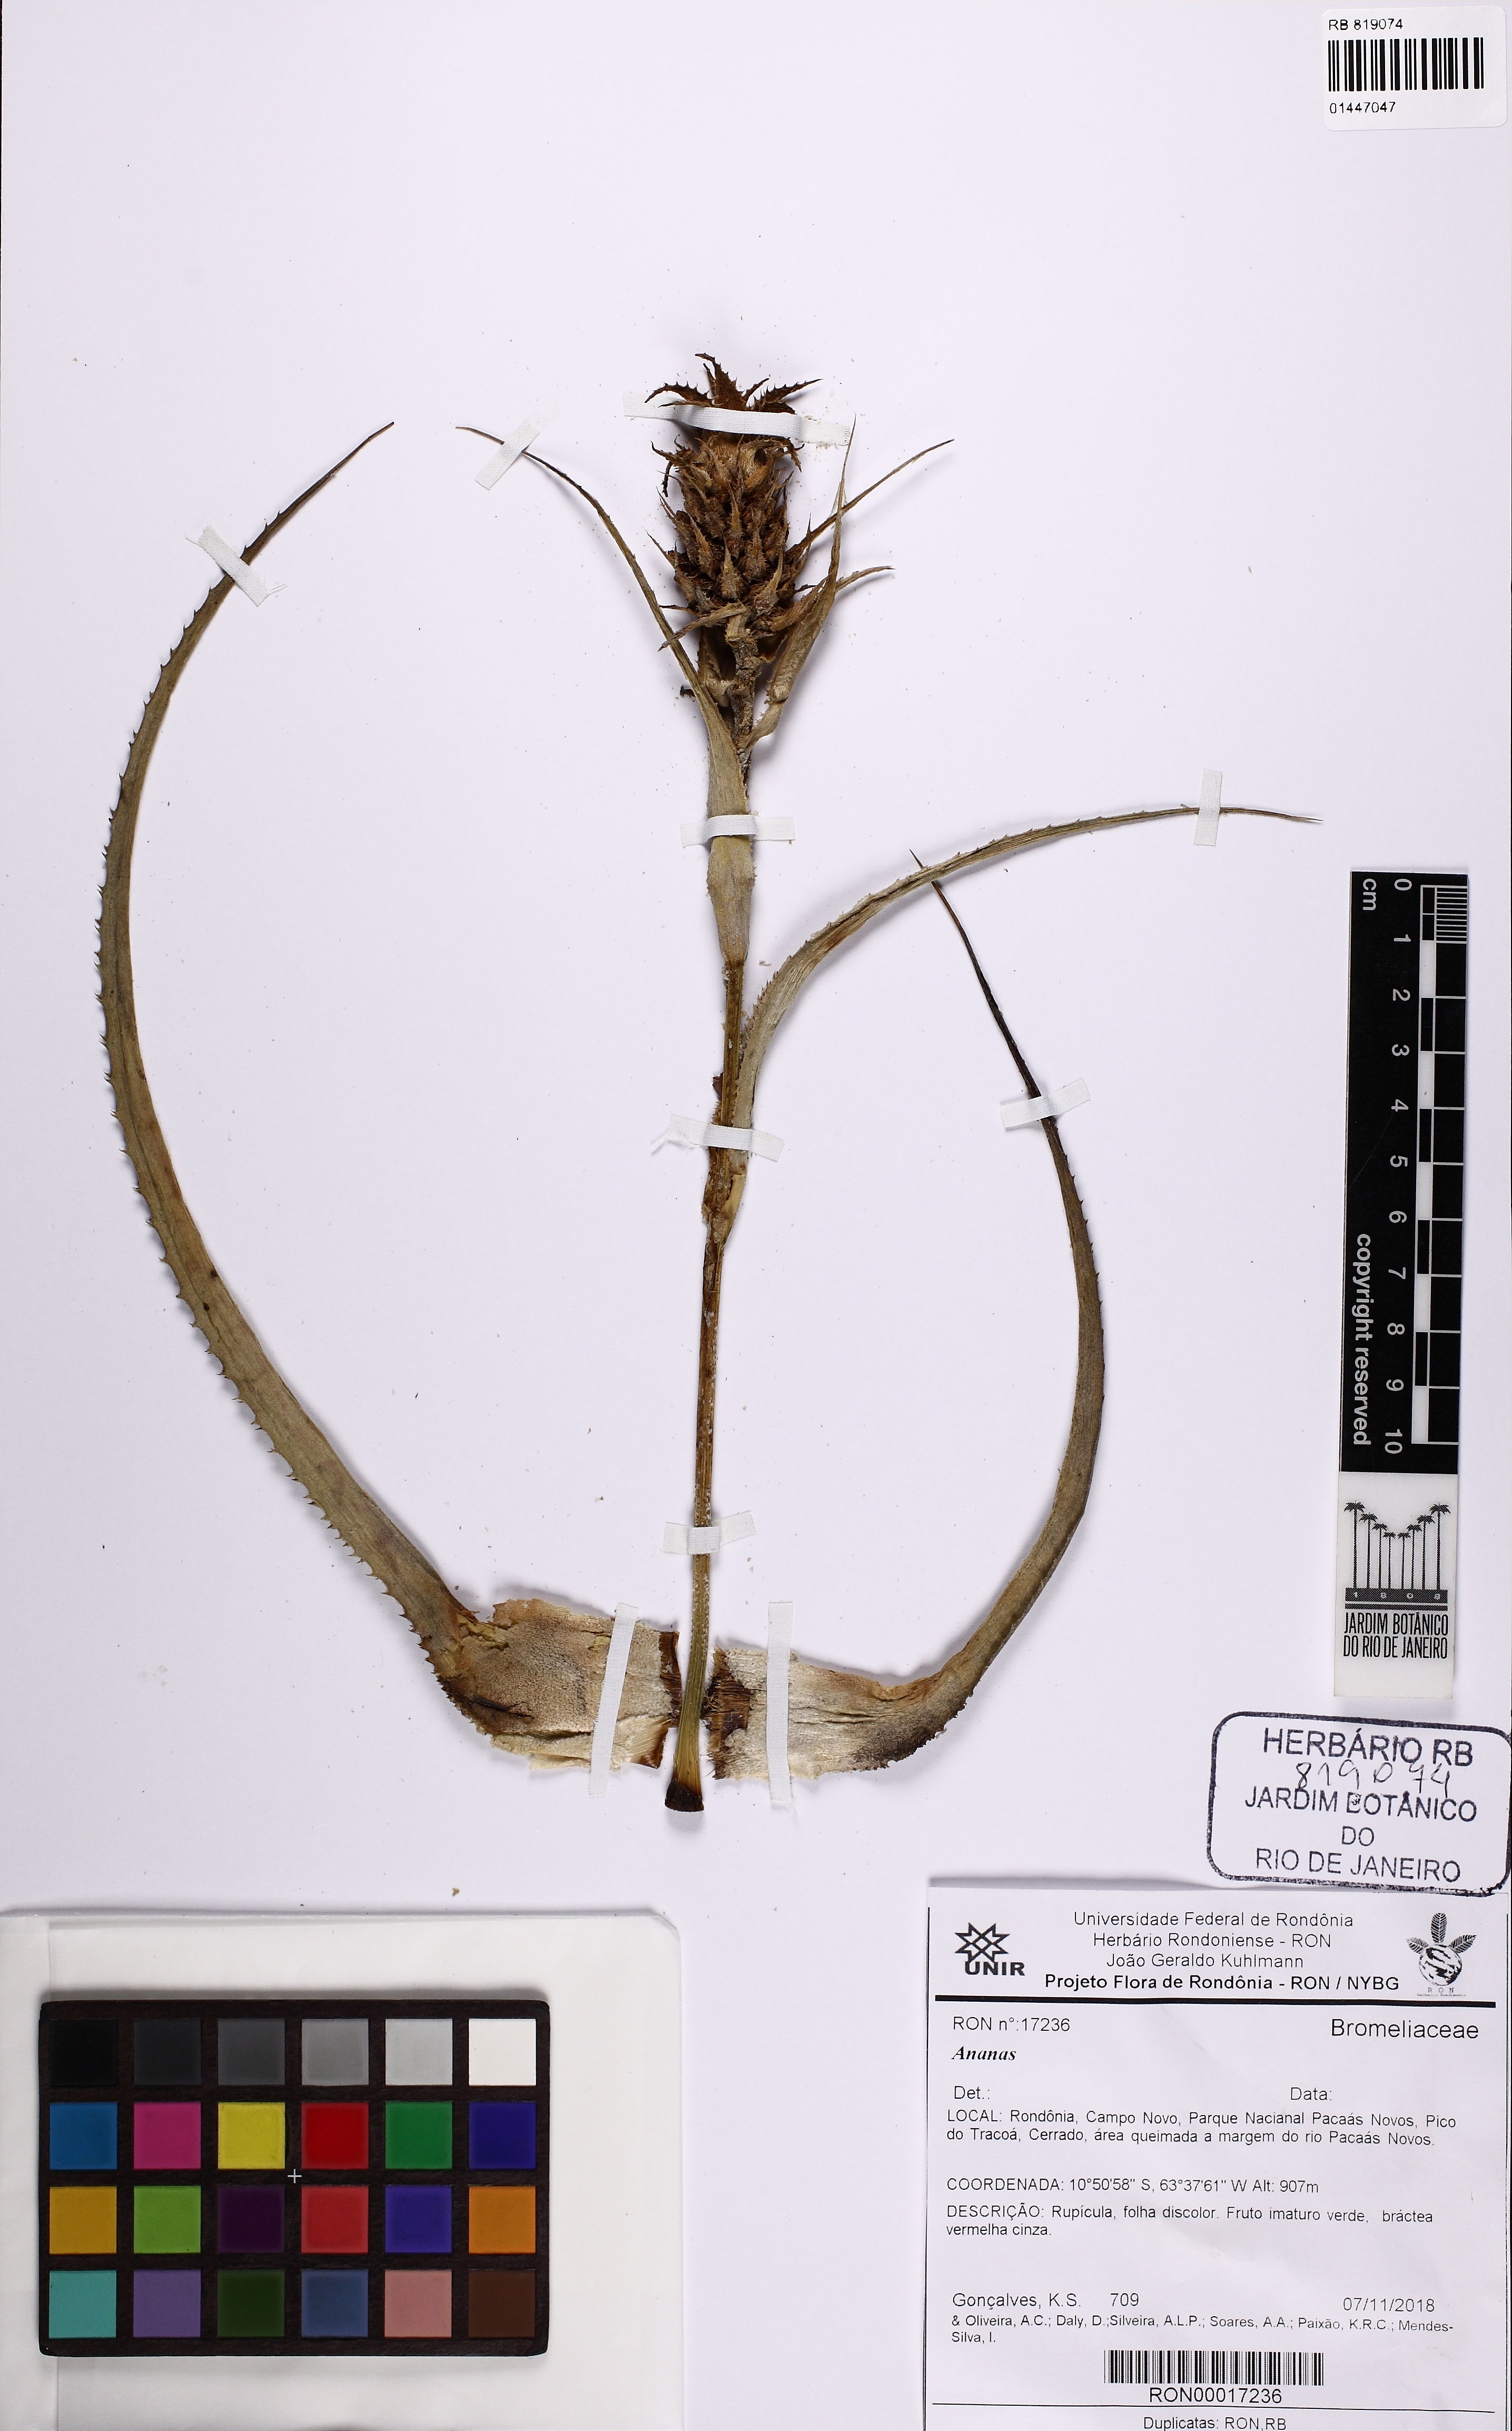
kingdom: Plantae
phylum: Tracheophyta
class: Liliopsida
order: Poales
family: Bromeliaceae
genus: Ananas
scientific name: Ananas
